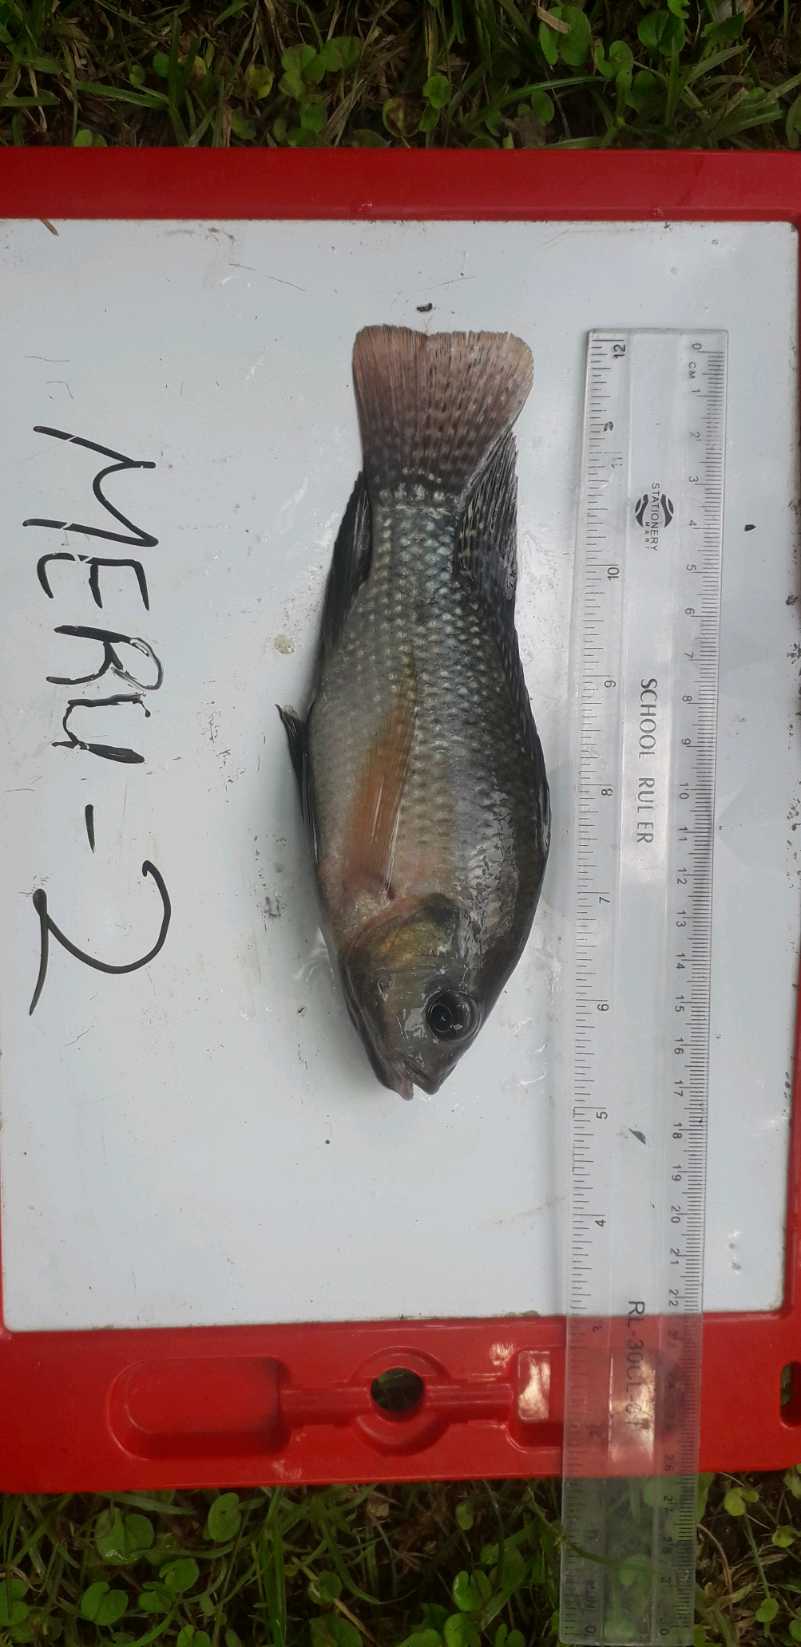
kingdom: Animalia
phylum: Chordata
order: Perciformes
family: Cichlidae
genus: Oreochromis
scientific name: Oreochromis
